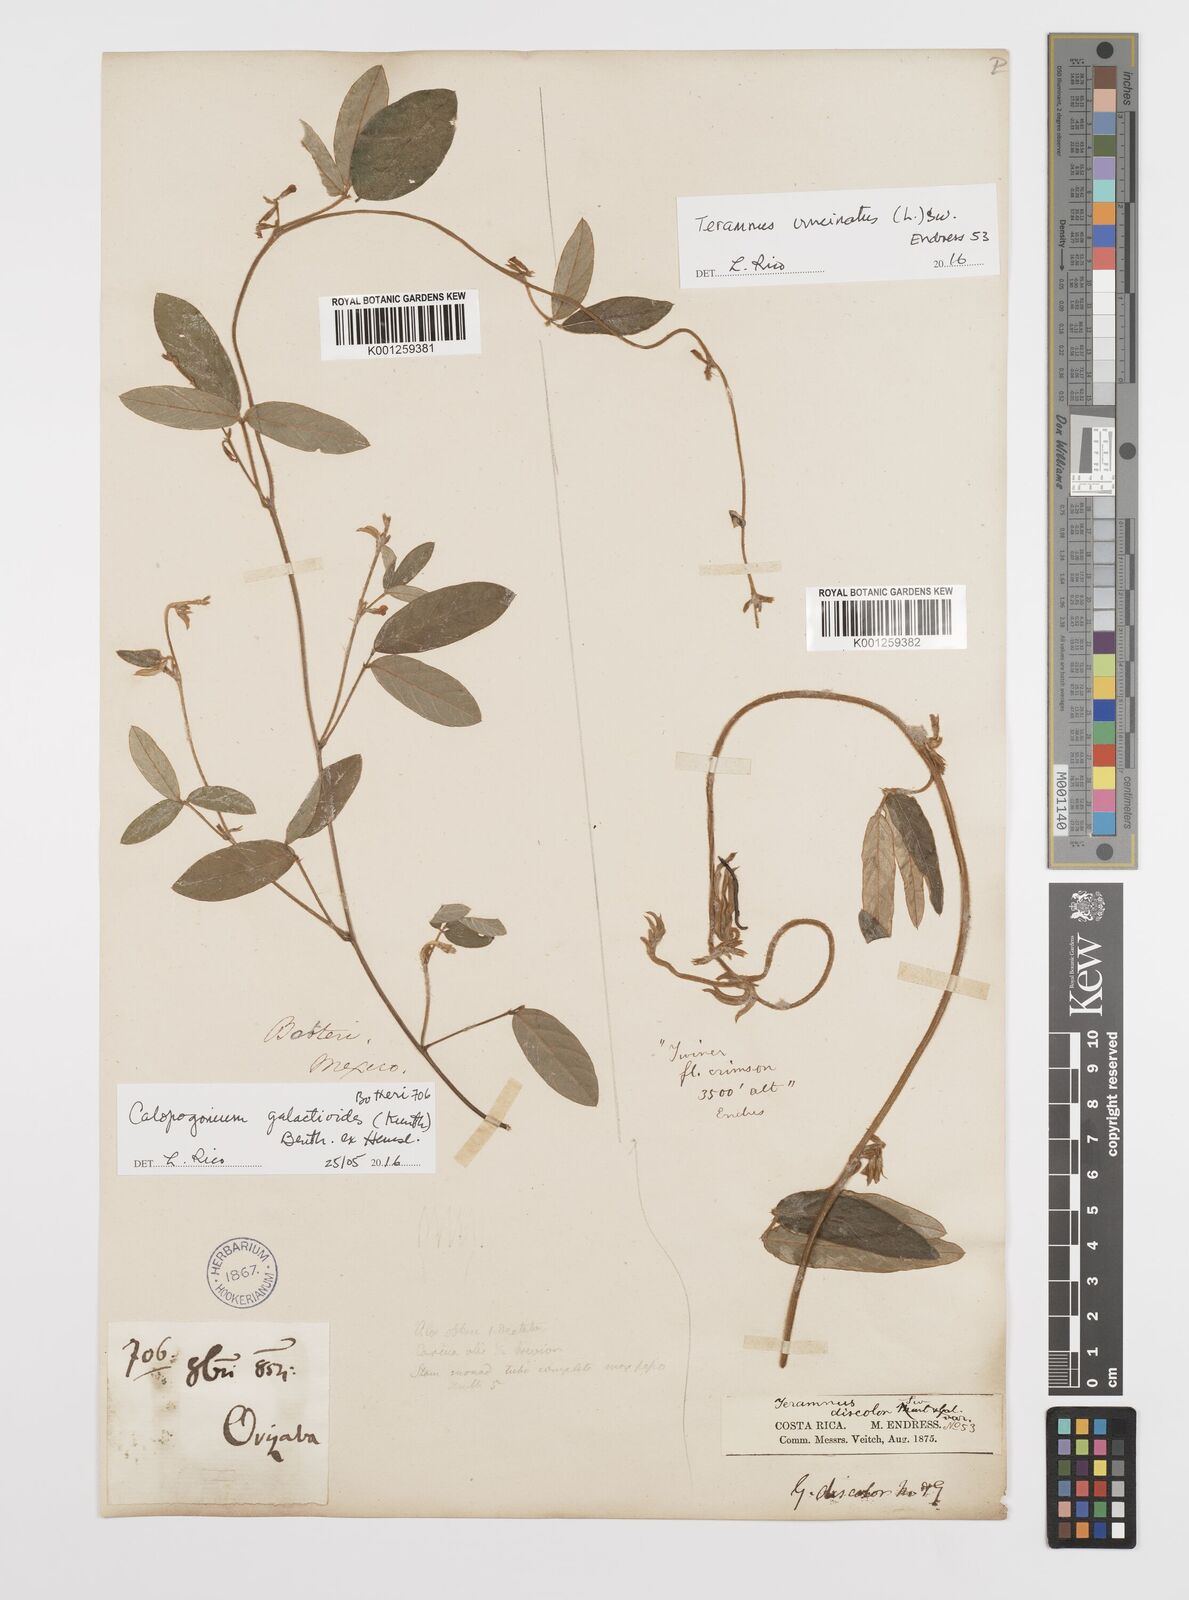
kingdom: Plantae
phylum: Tracheophyta
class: Magnoliopsida
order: Fabales
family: Fabaceae
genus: Teramnus
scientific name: Teramnus uncinatus
